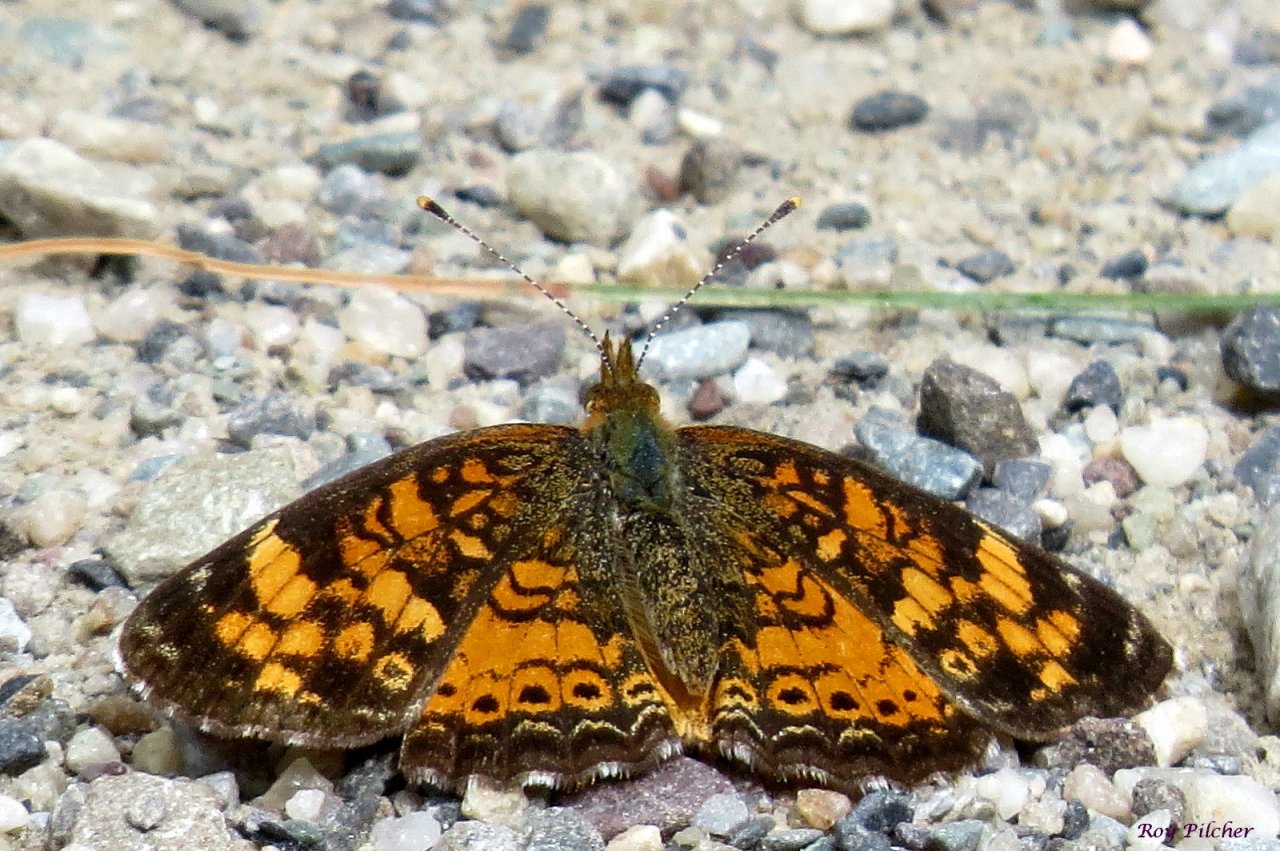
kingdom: Animalia
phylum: Arthropoda
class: Insecta
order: Lepidoptera
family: Nymphalidae
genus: Phyciodes
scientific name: Phyciodes tharos
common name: Pearl Crescent
